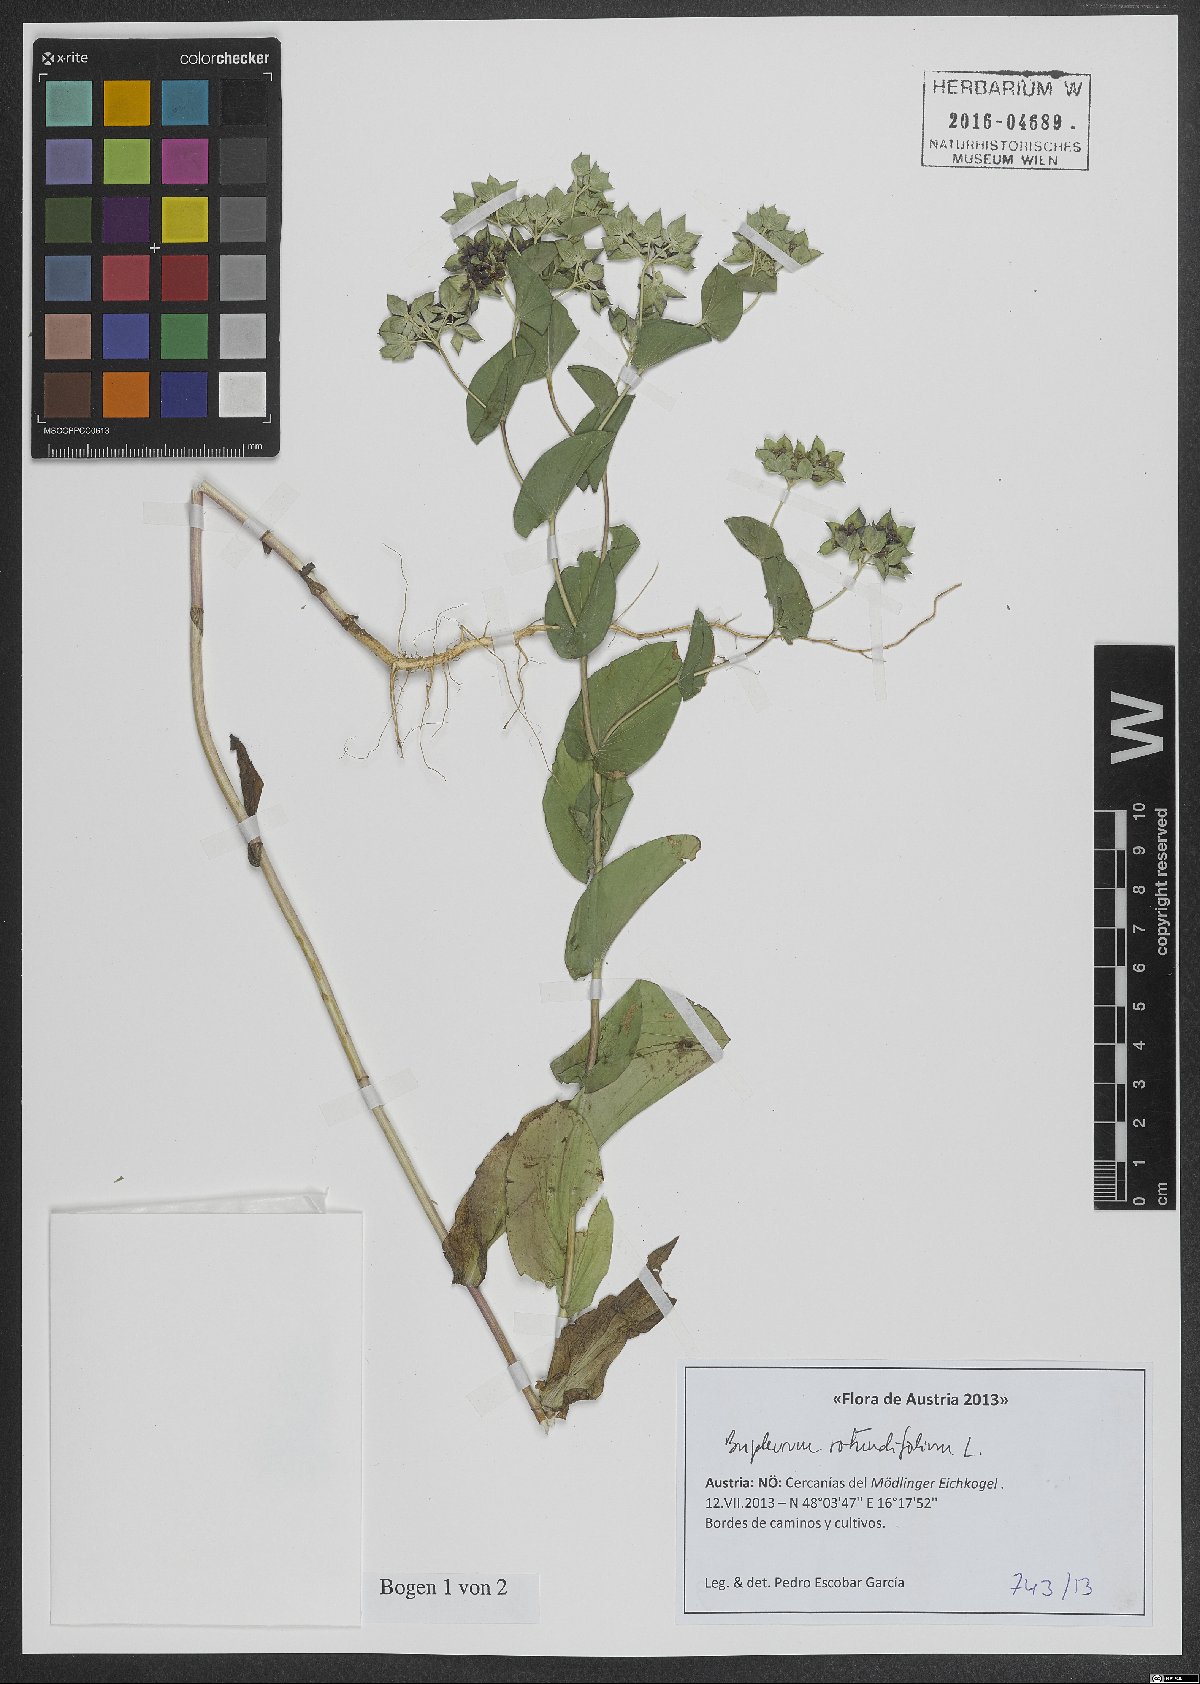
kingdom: Plantae
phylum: Tracheophyta
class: Magnoliopsida
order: Apiales
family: Apiaceae
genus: Bupleurum
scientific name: Bupleurum rotundifolium
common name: Thorow-wax
